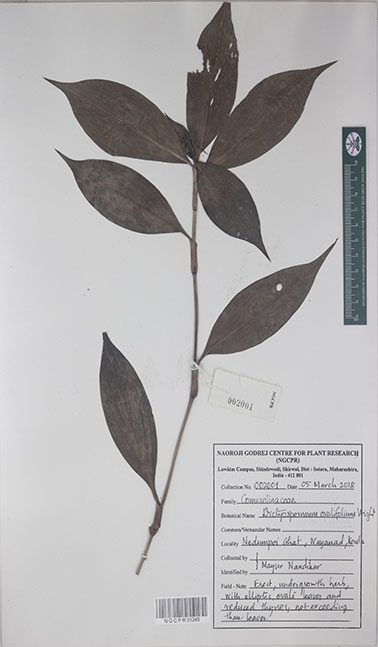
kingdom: Plantae
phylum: Tracheophyta
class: Liliopsida
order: Commelinales
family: Commelinaceae
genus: Dictyospermum
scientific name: Dictyospermum ovalifolium
